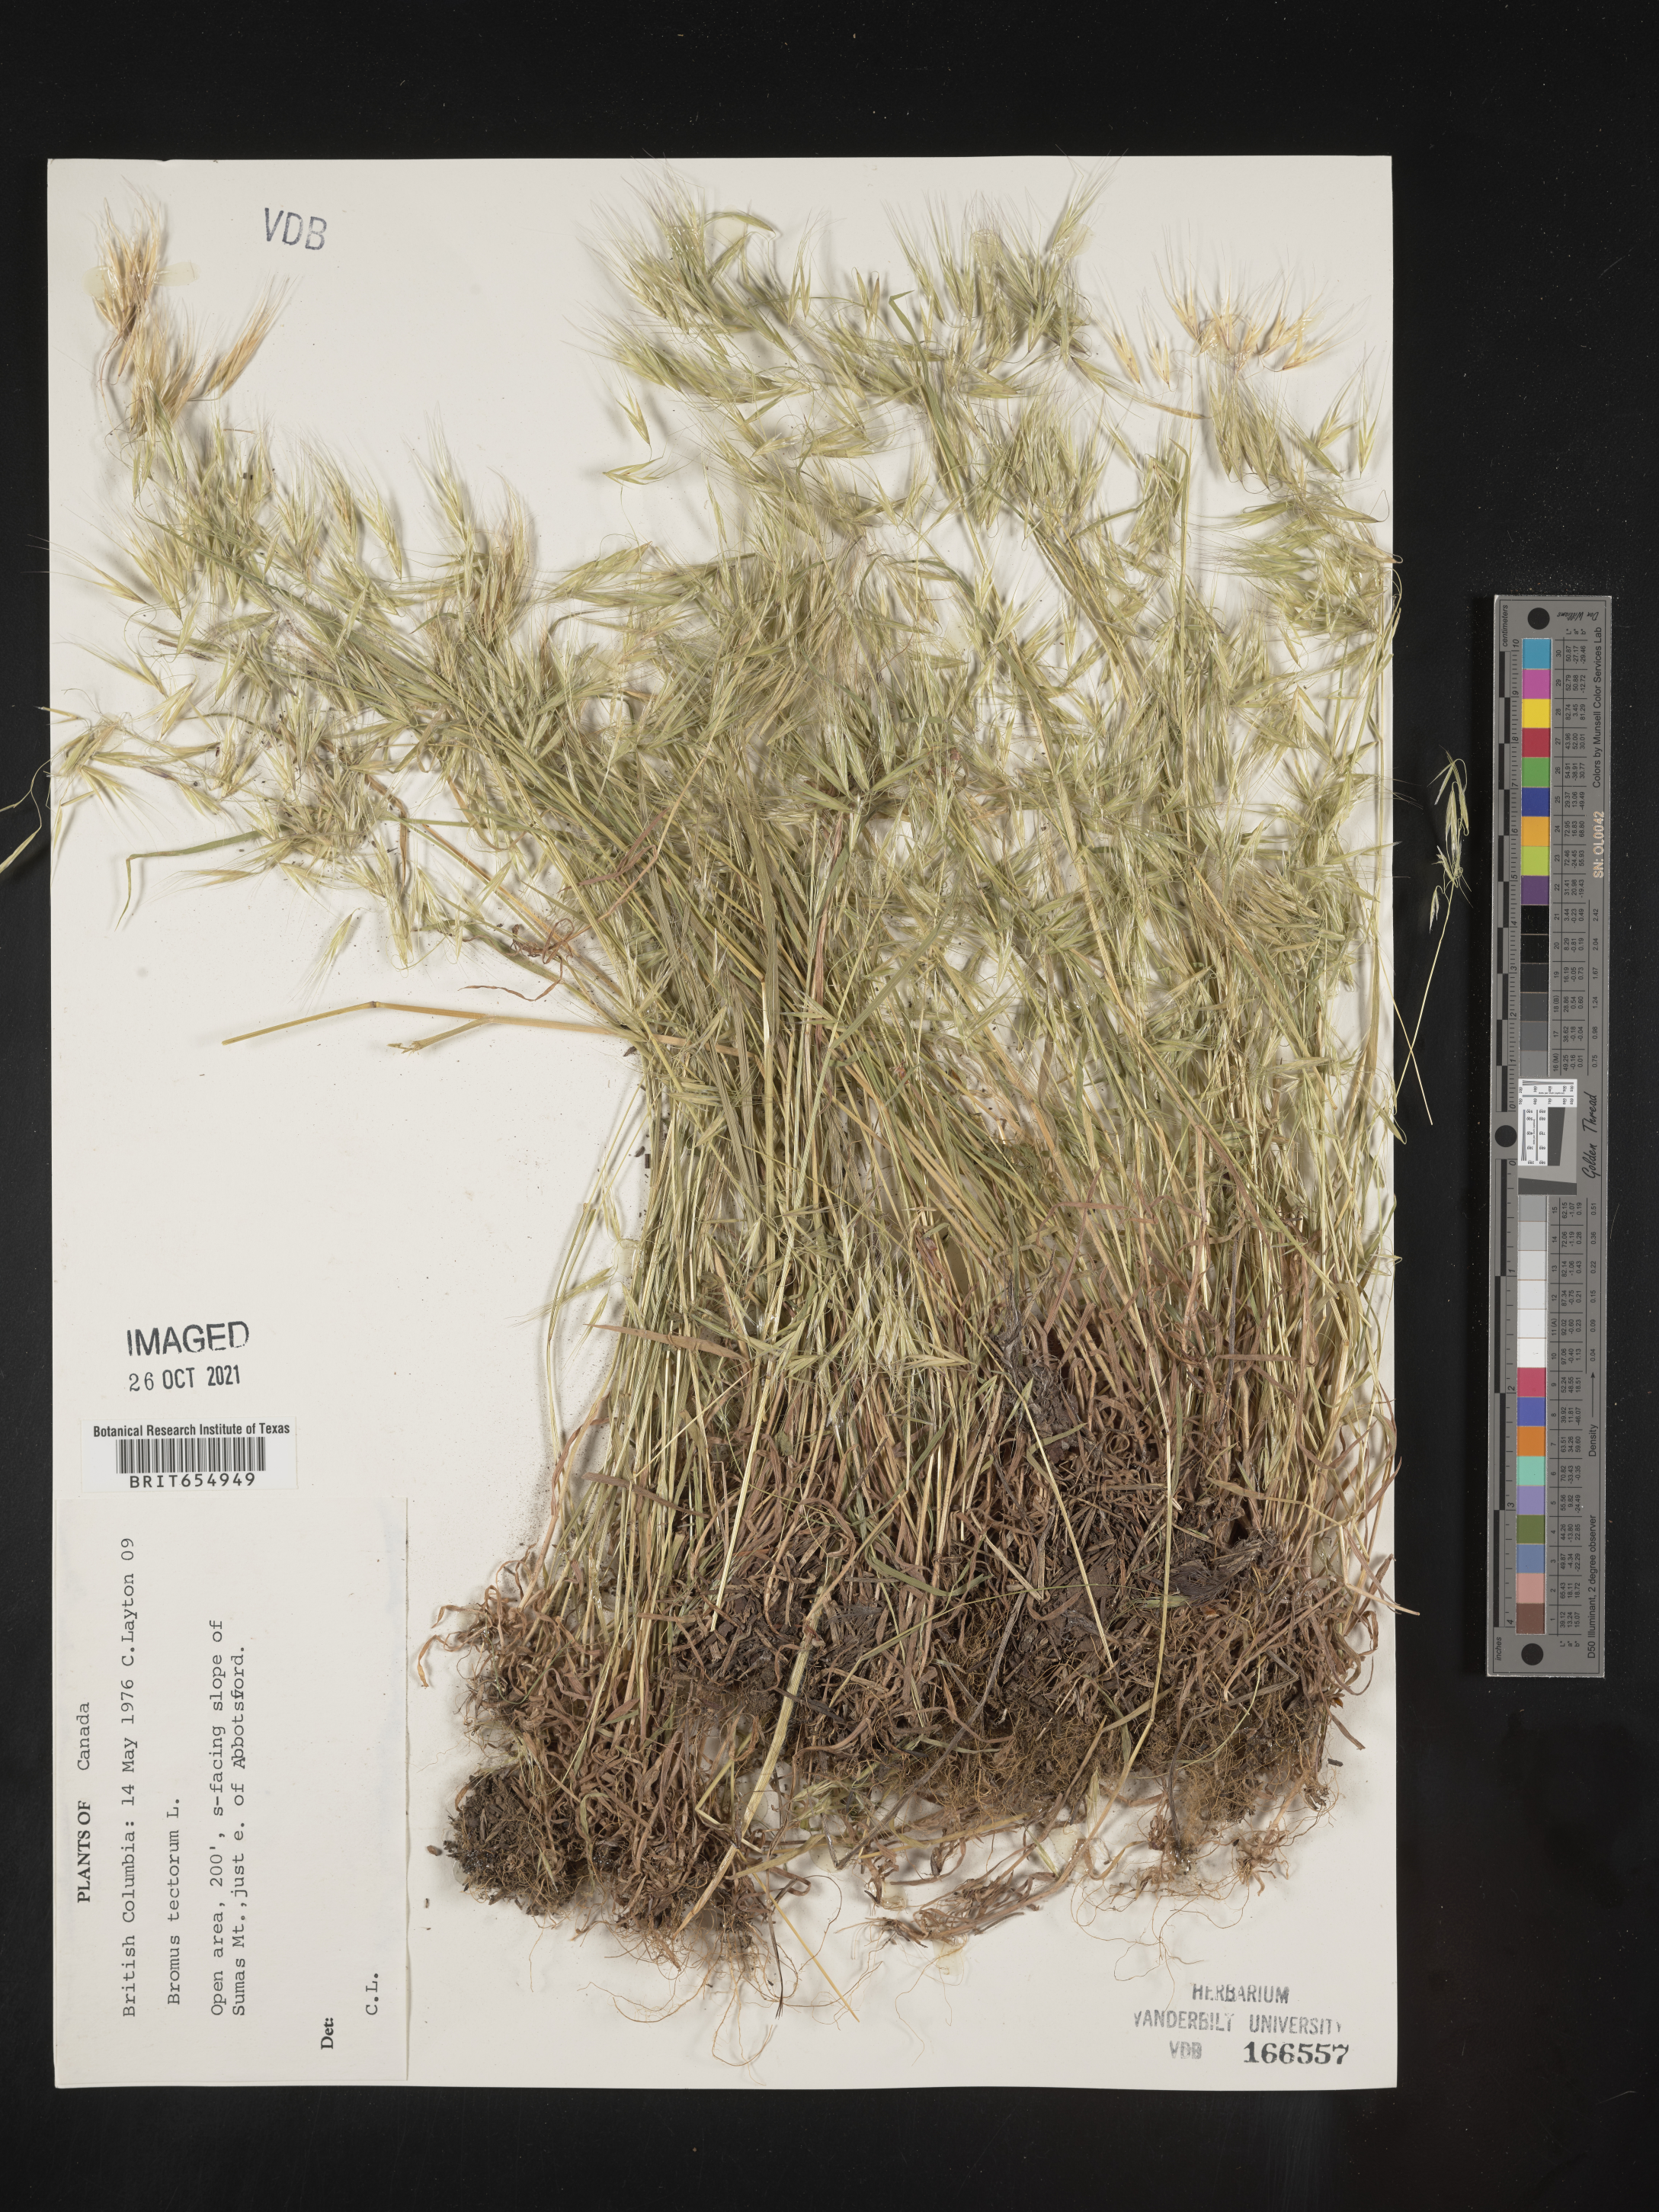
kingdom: Plantae
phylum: Tracheophyta
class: Liliopsida
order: Poales
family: Poaceae
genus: Bromus
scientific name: Bromus
